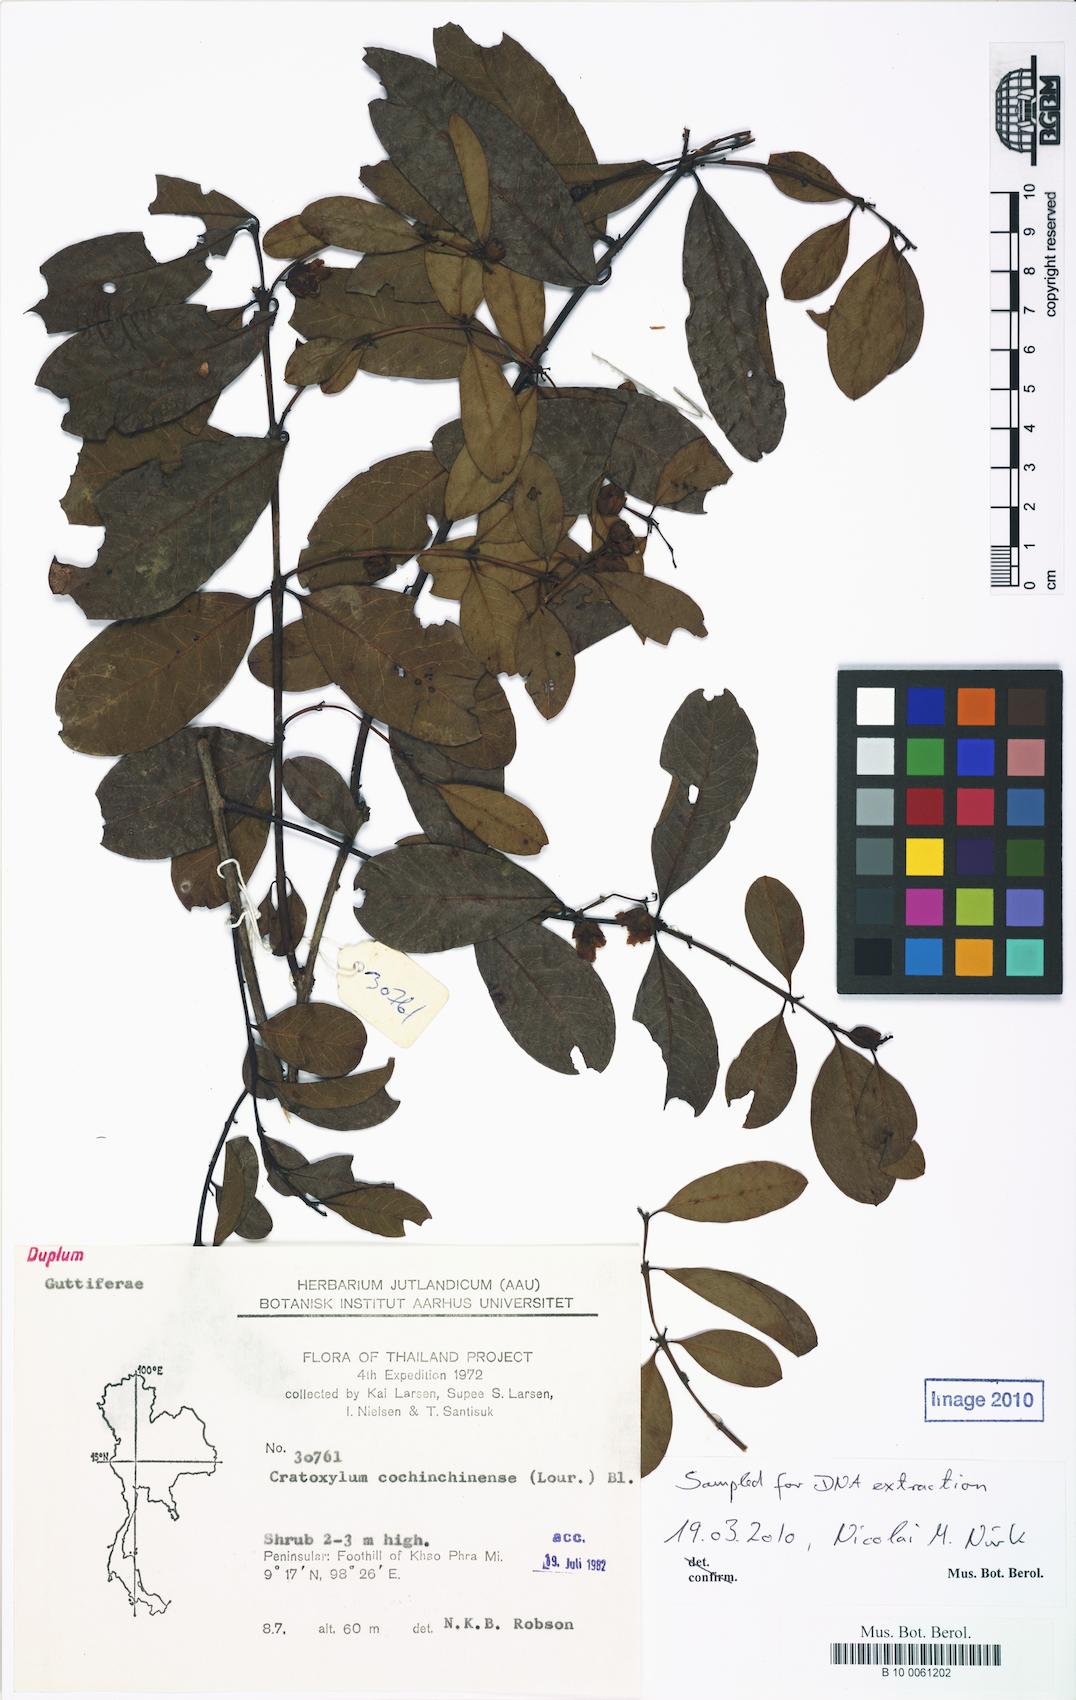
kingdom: Plantae
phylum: Tracheophyta
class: Magnoliopsida
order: Malpighiales
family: Hypericaceae
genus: Cratoxylum
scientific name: Cratoxylum cochinchinense
